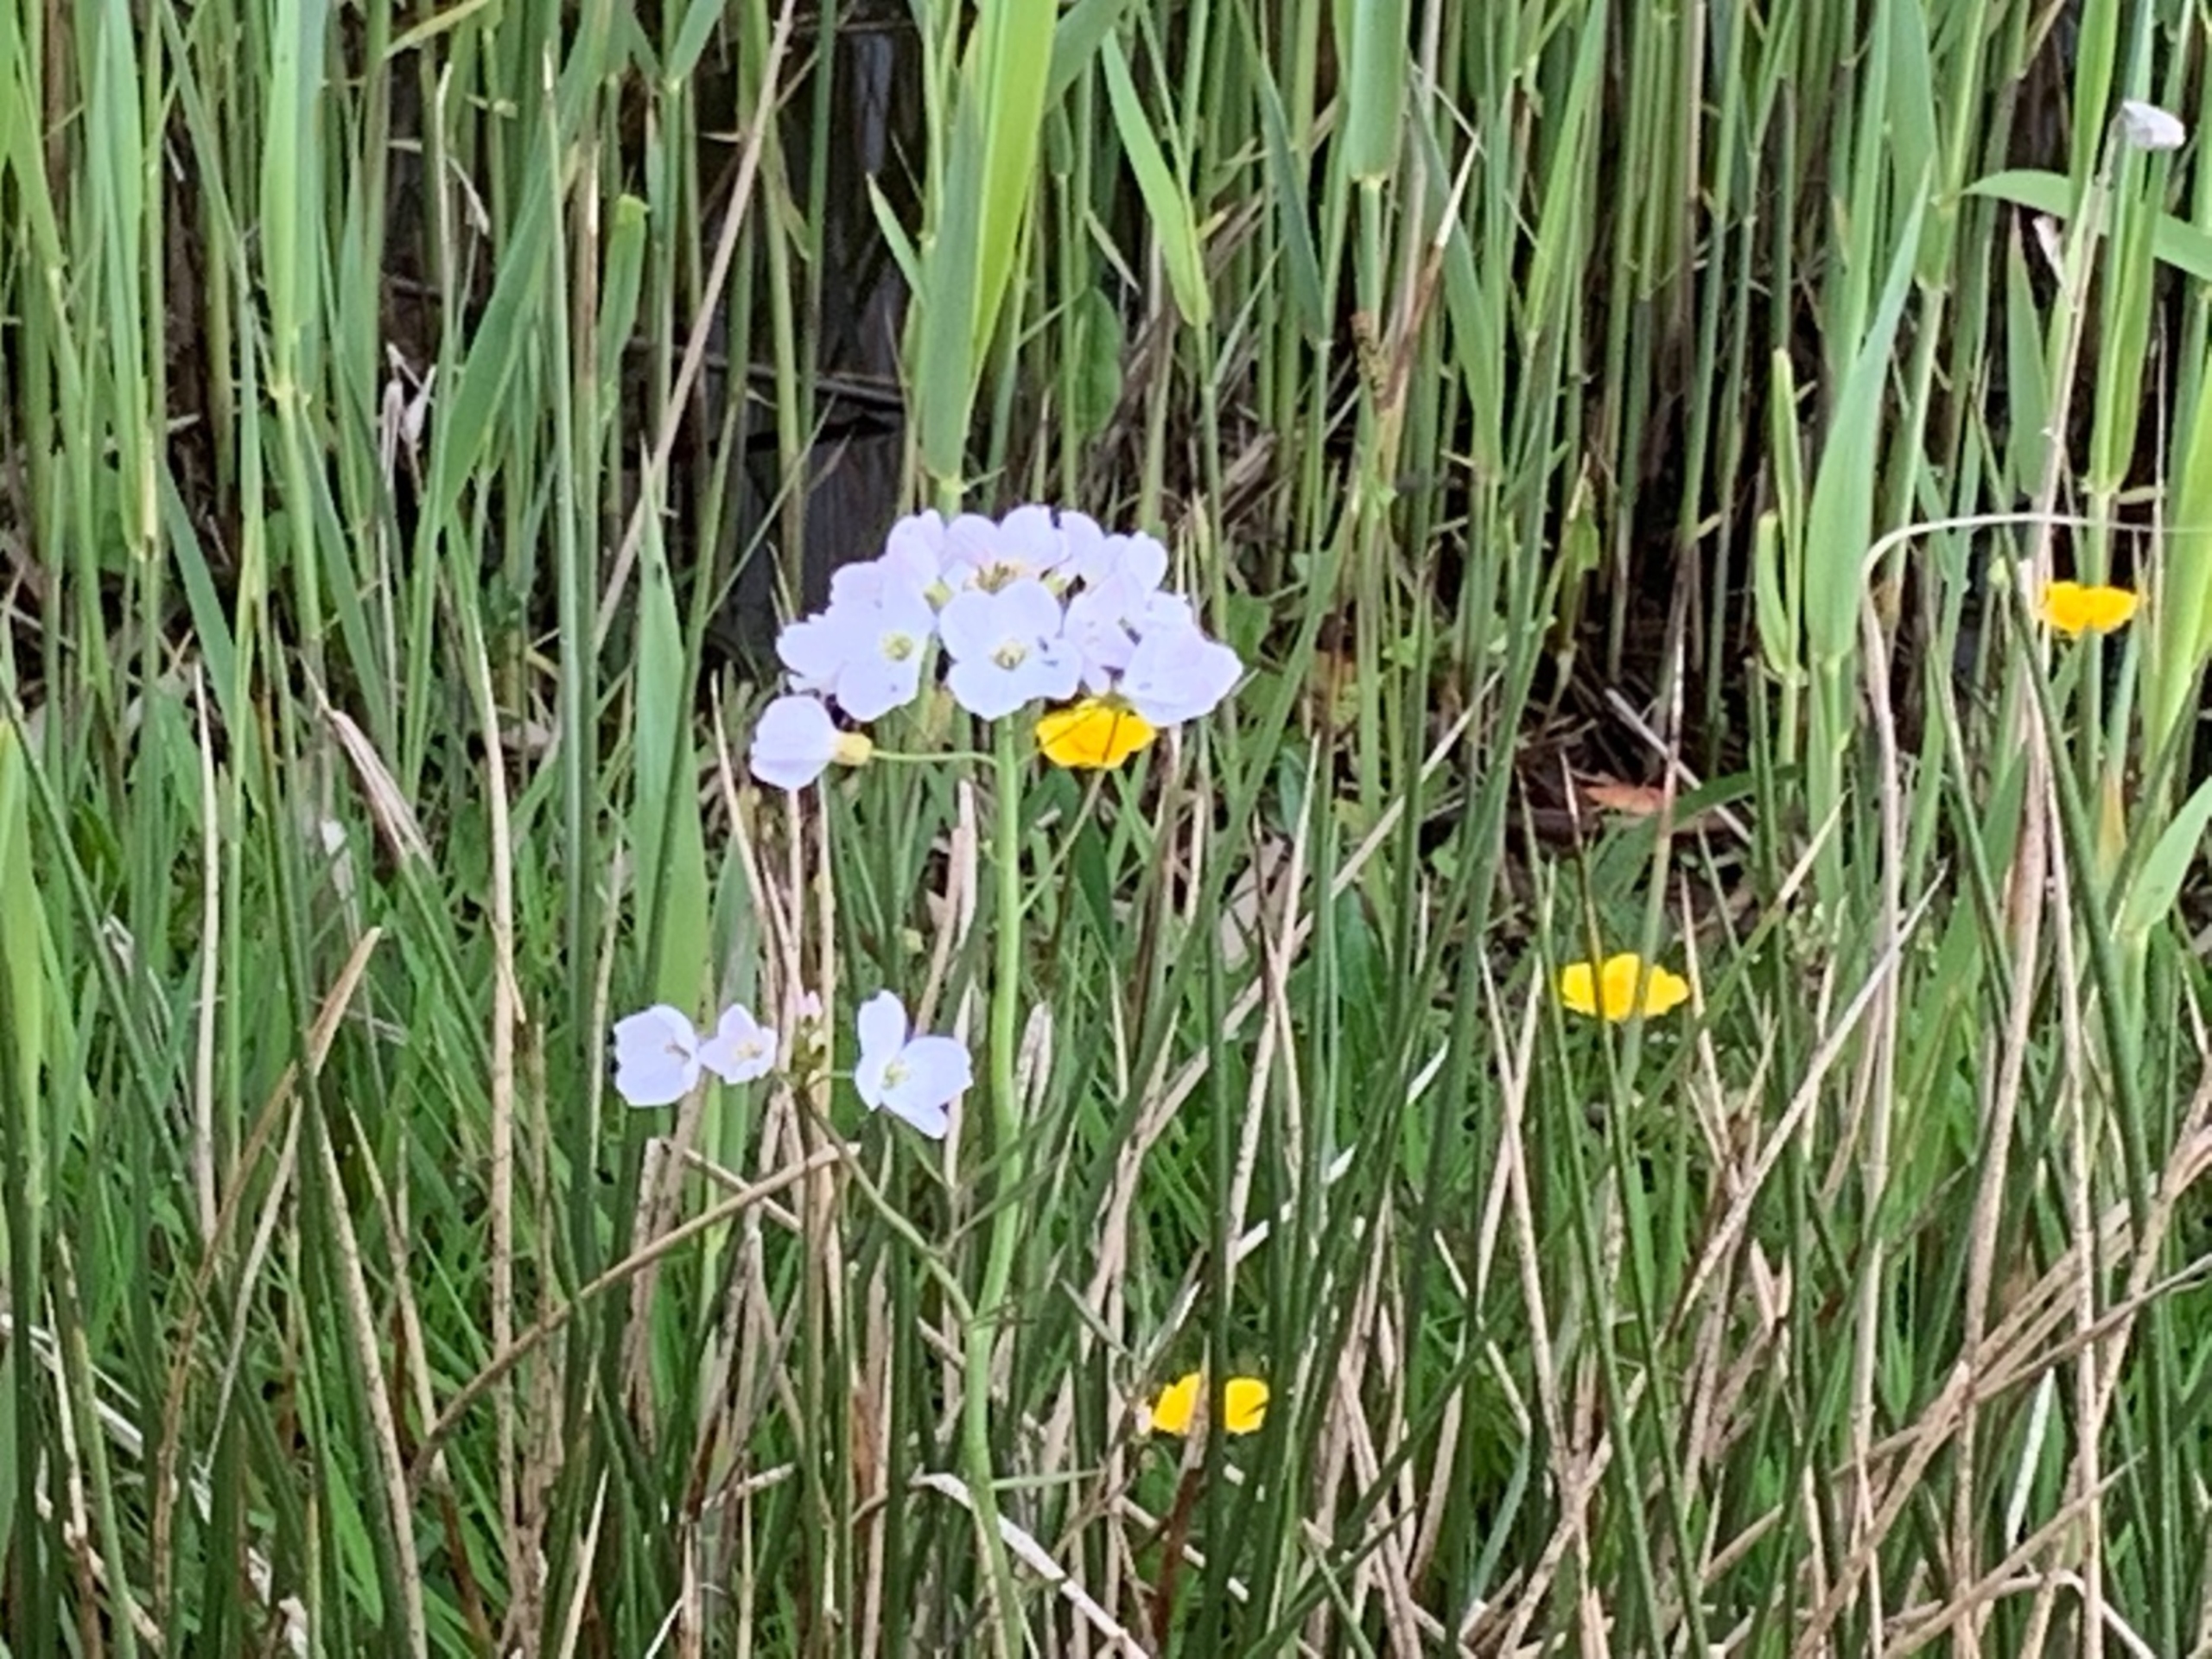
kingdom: Plantae
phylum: Tracheophyta
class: Magnoliopsida
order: Brassicales
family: Brassicaceae
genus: Cardamine
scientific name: Cardamine pratensis
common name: Engkarse
